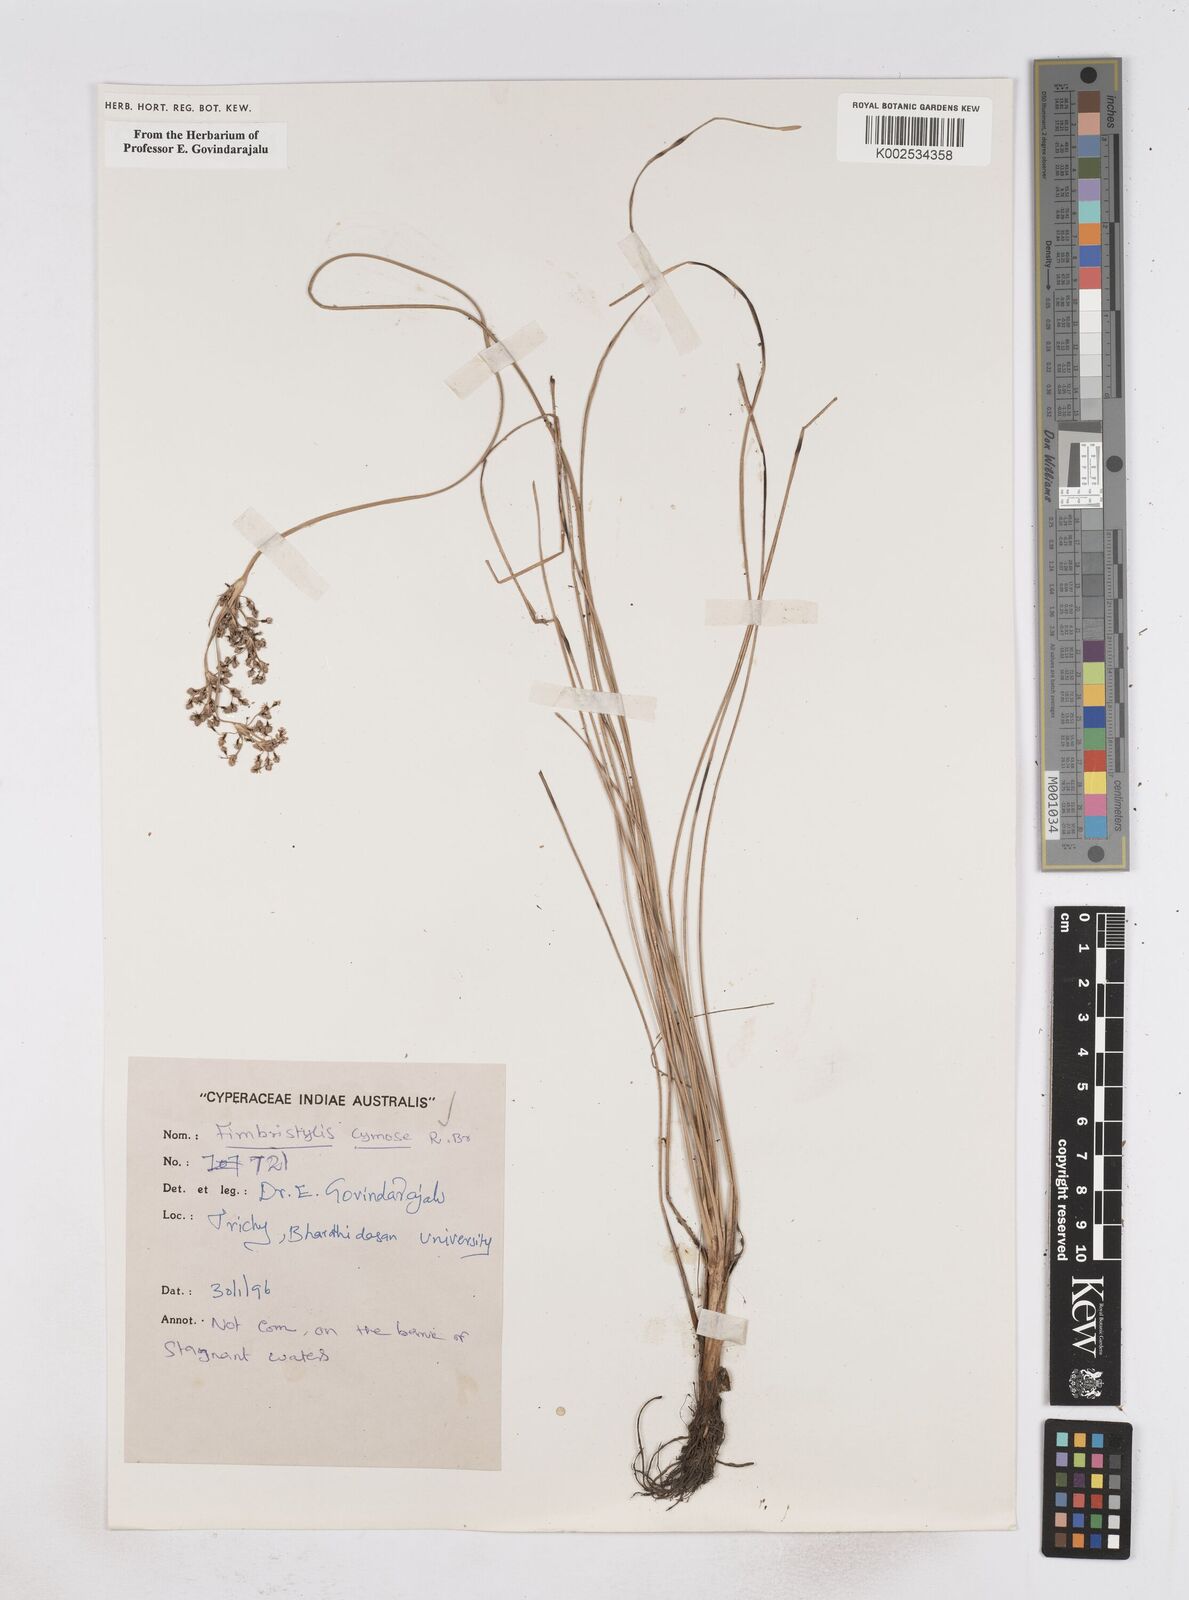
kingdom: Plantae
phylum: Tracheophyta
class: Liliopsida
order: Poales
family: Cyperaceae
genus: Fimbristylis
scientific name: Fimbristylis cymosa
